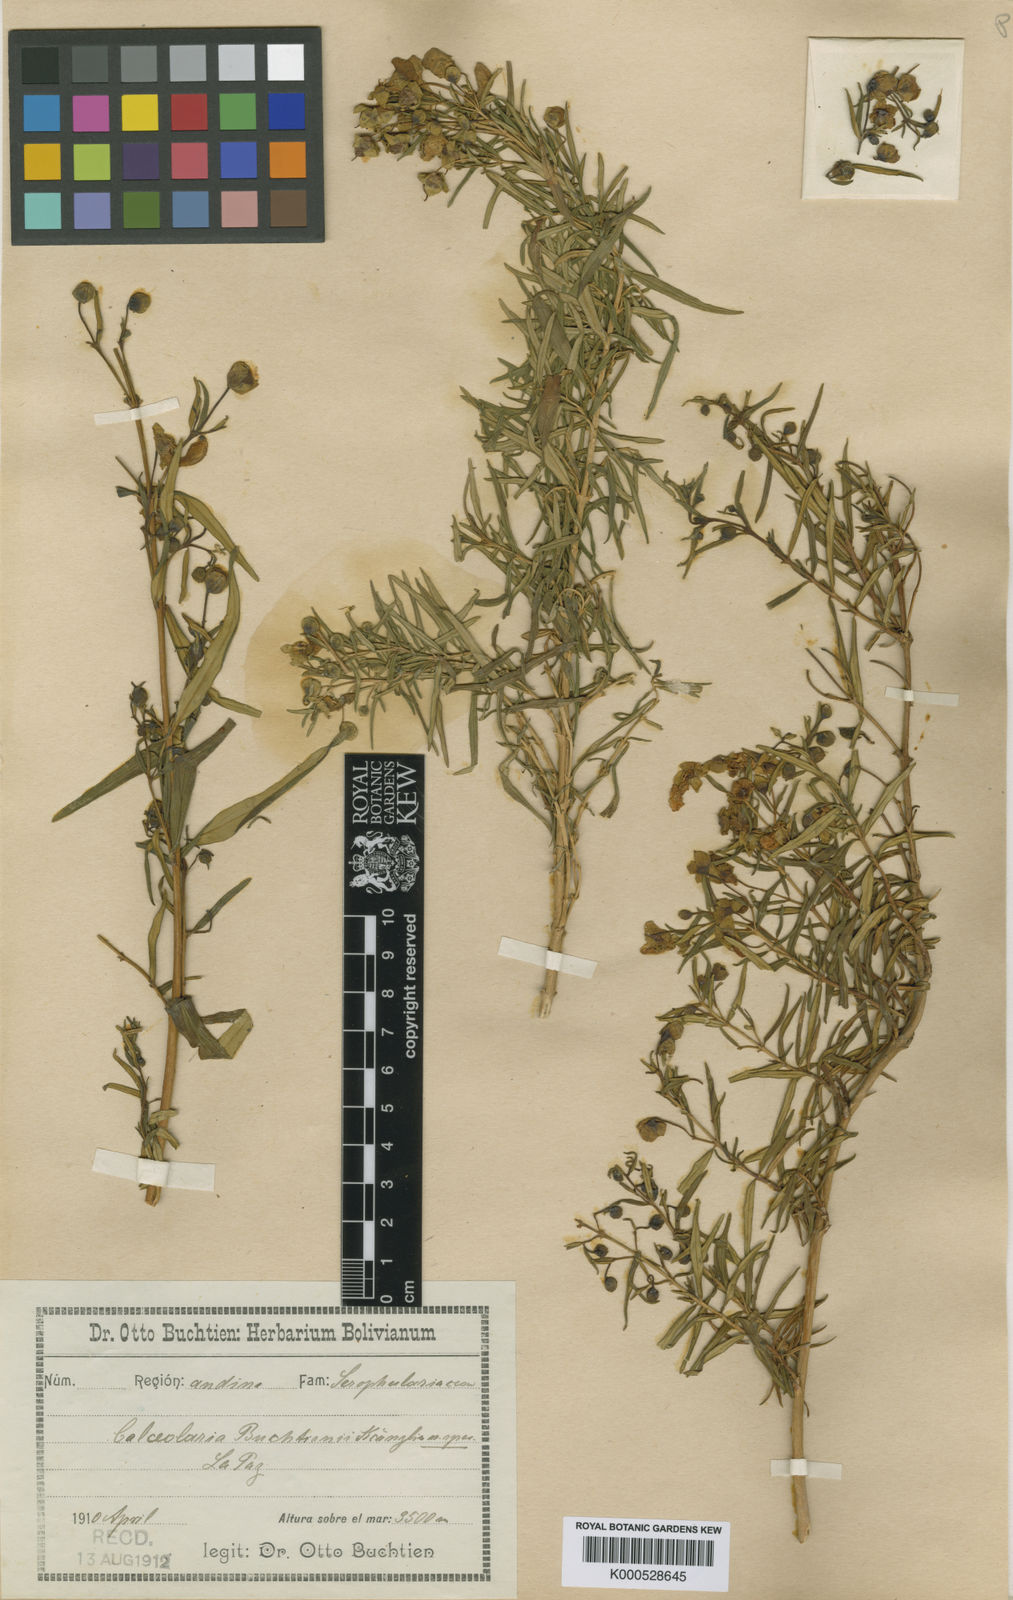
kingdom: Plantae
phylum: Tracheophyta
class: Magnoliopsida
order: Lamiales
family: Calceolariaceae
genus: Calceolaria
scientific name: Calceolaria buchtieniana
